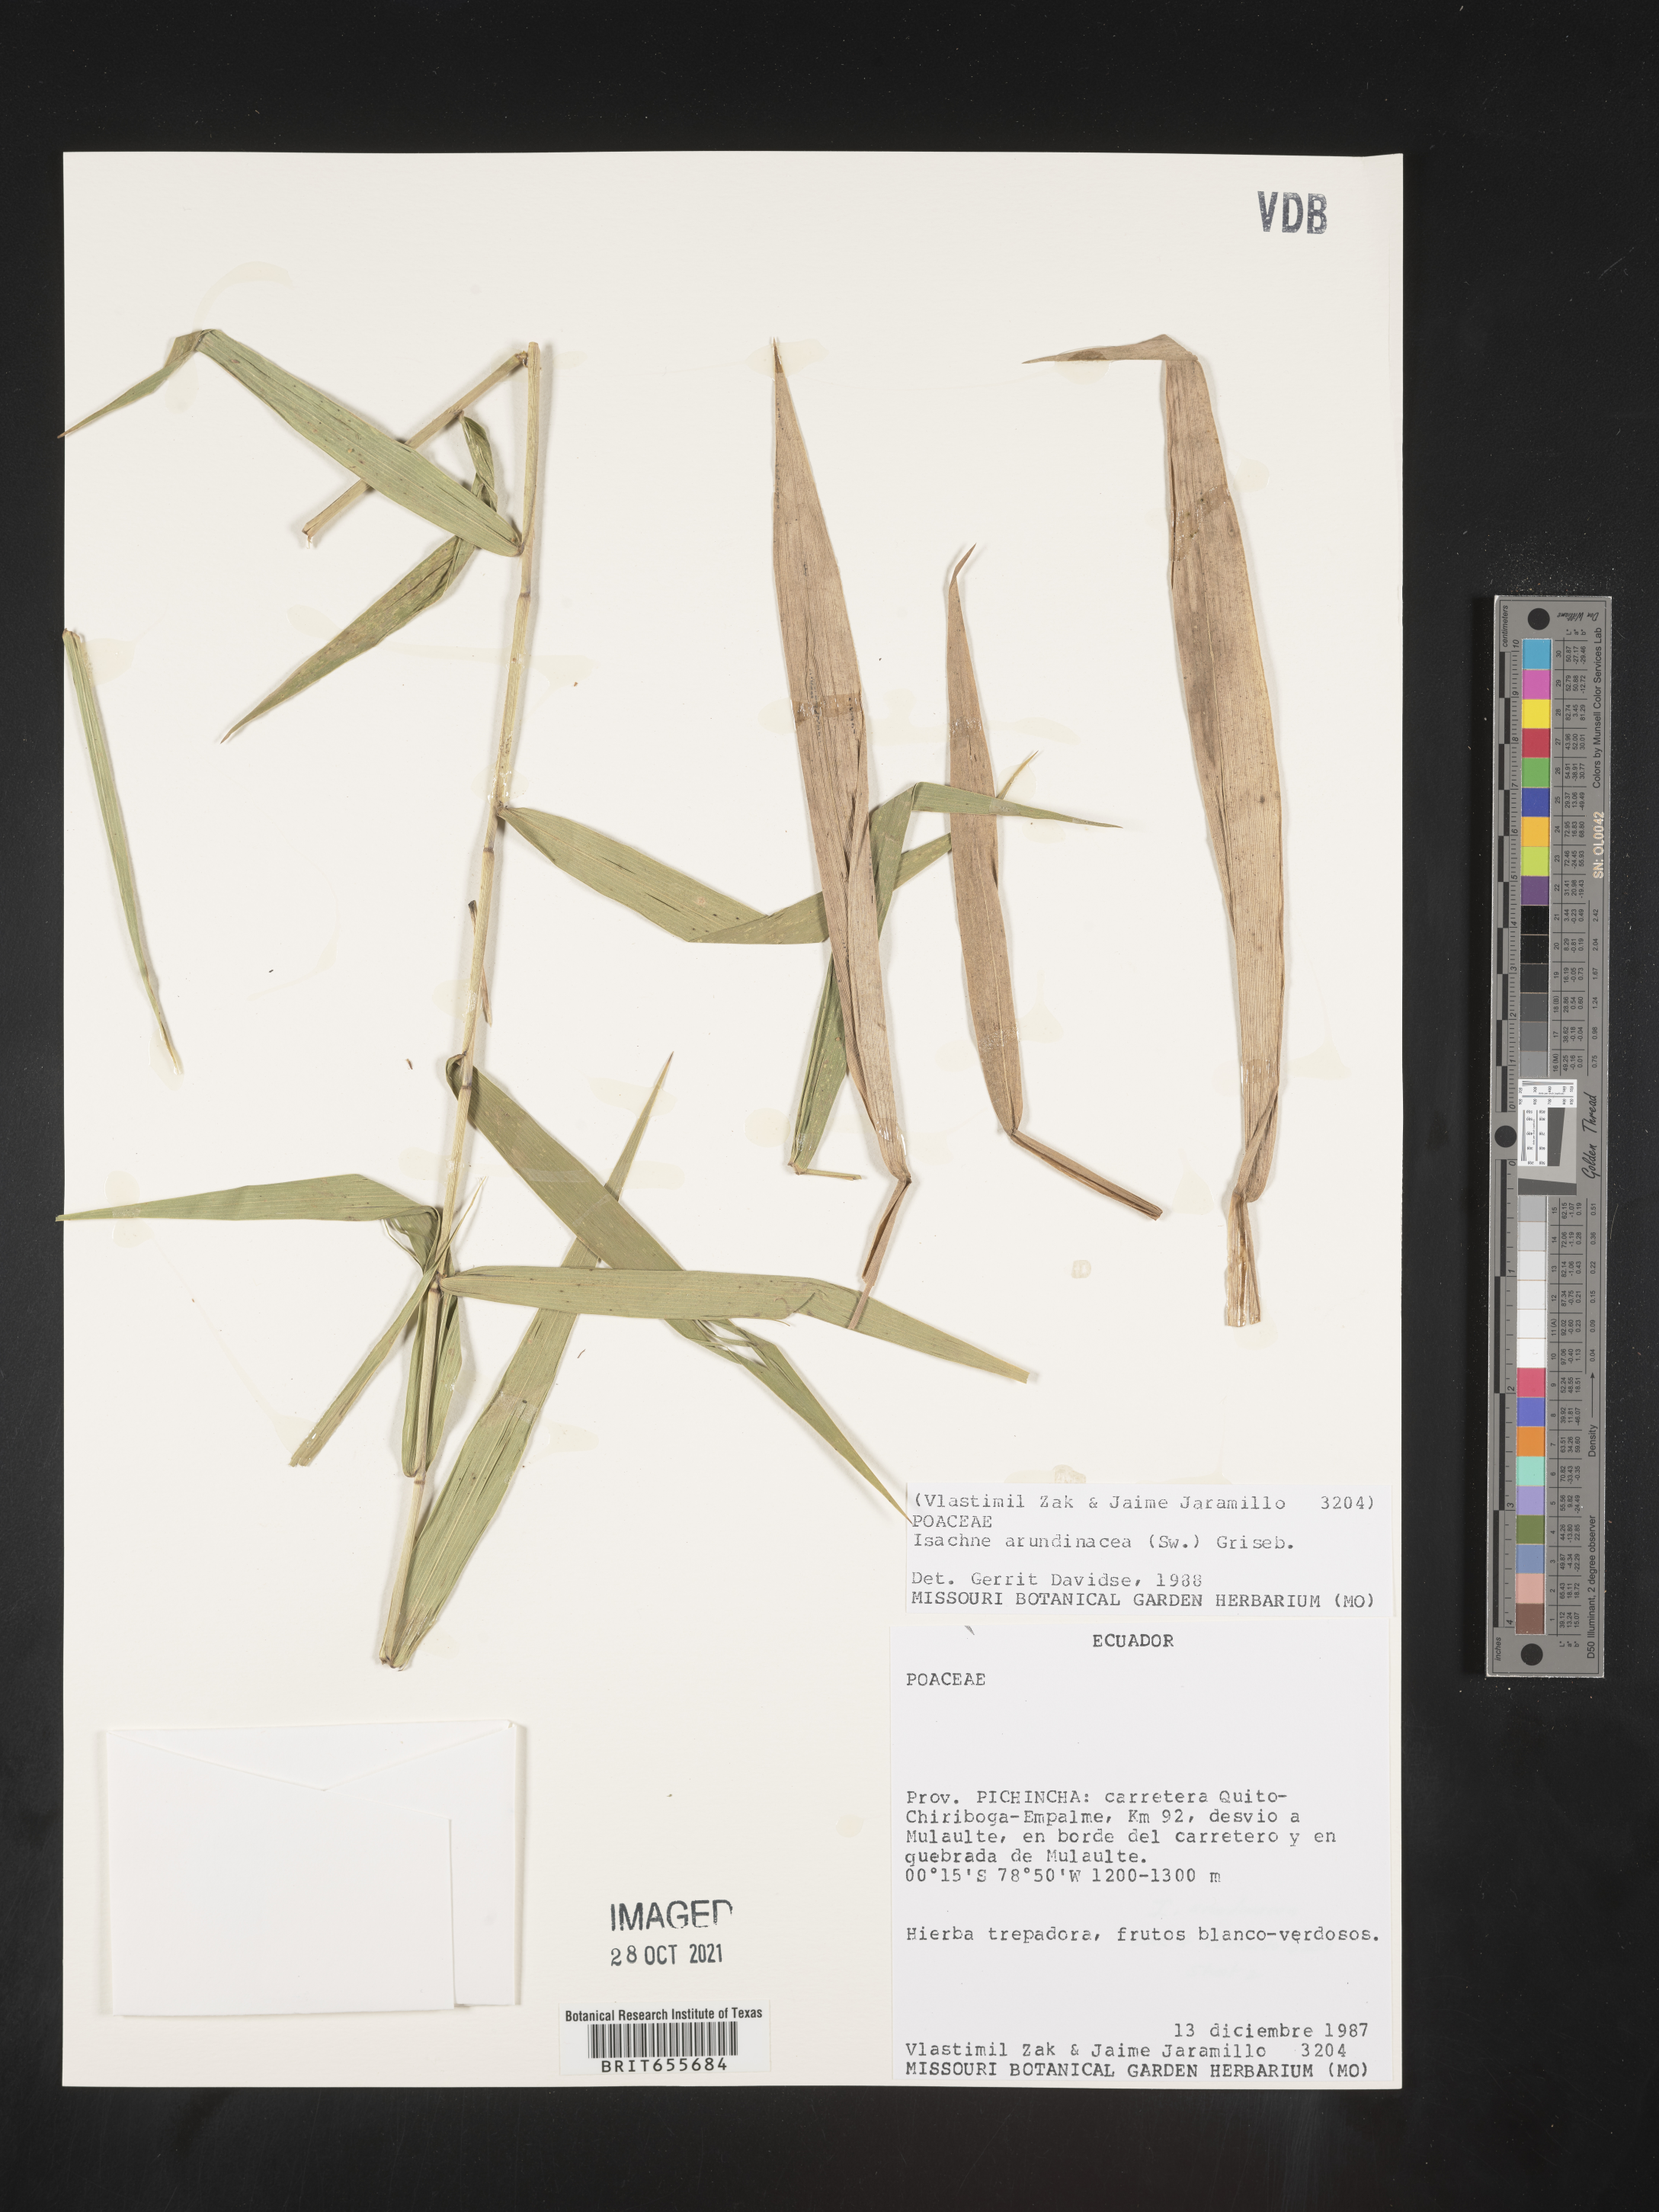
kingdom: Plantae
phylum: Tracheophyta
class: Liliopsida
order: Poales
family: Poaceae
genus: Isachne
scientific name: Isachne
